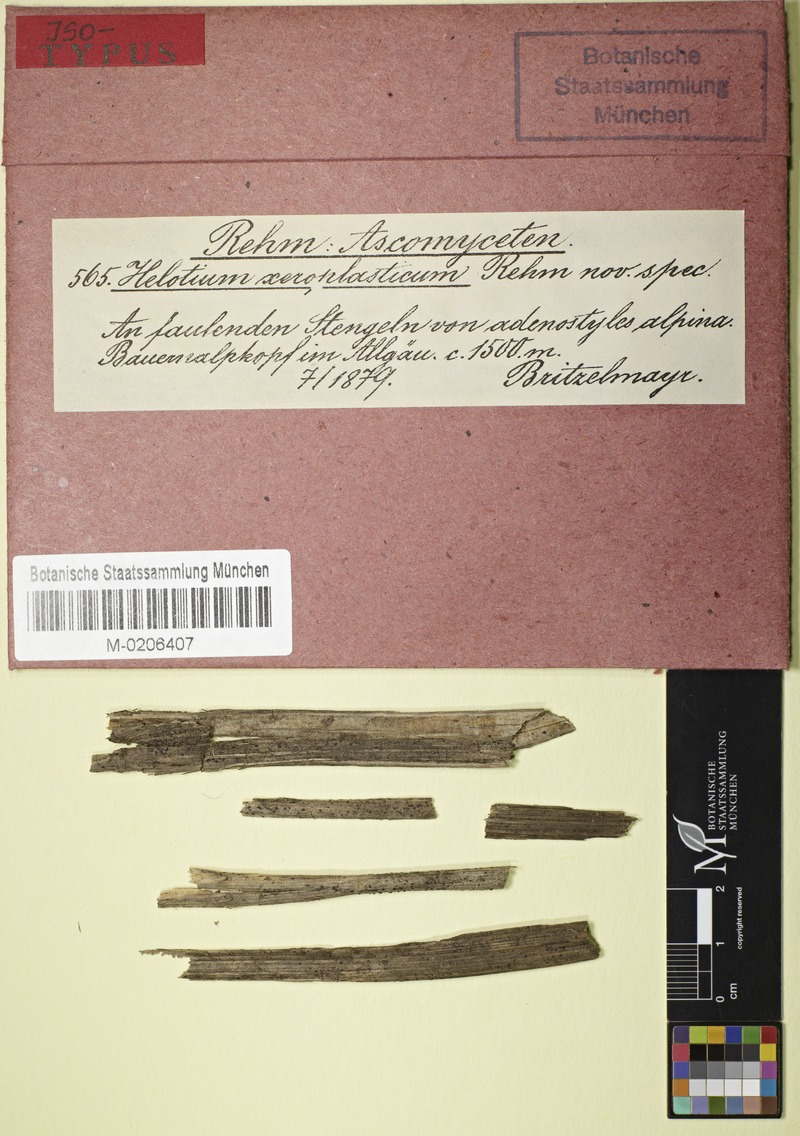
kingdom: Fungi
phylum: Ascomycota
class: Leotiomycetes
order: Helotiales
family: Pezizellaceae
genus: Pezizella
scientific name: Pezizella xeroplastica
